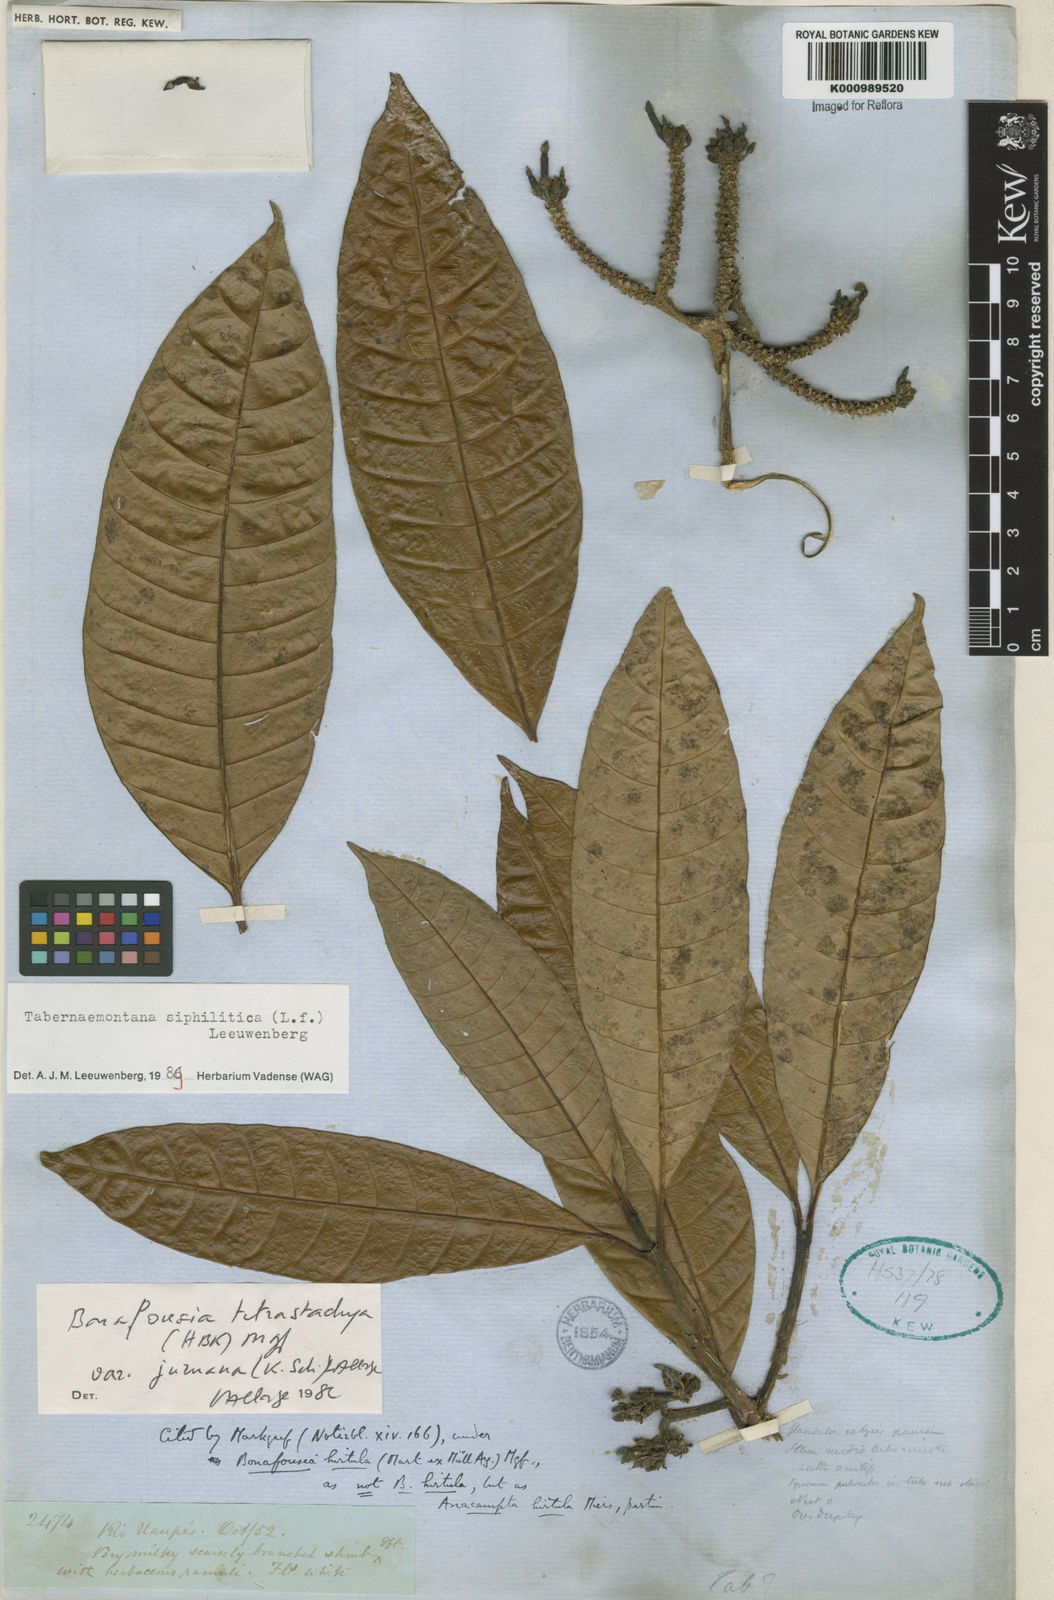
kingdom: Plantae
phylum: Tracheophyta
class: Magnoliopsida
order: Gentianales
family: Apocynaceae
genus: Tabernaemontana
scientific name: Tabernaemontana siphilitica
